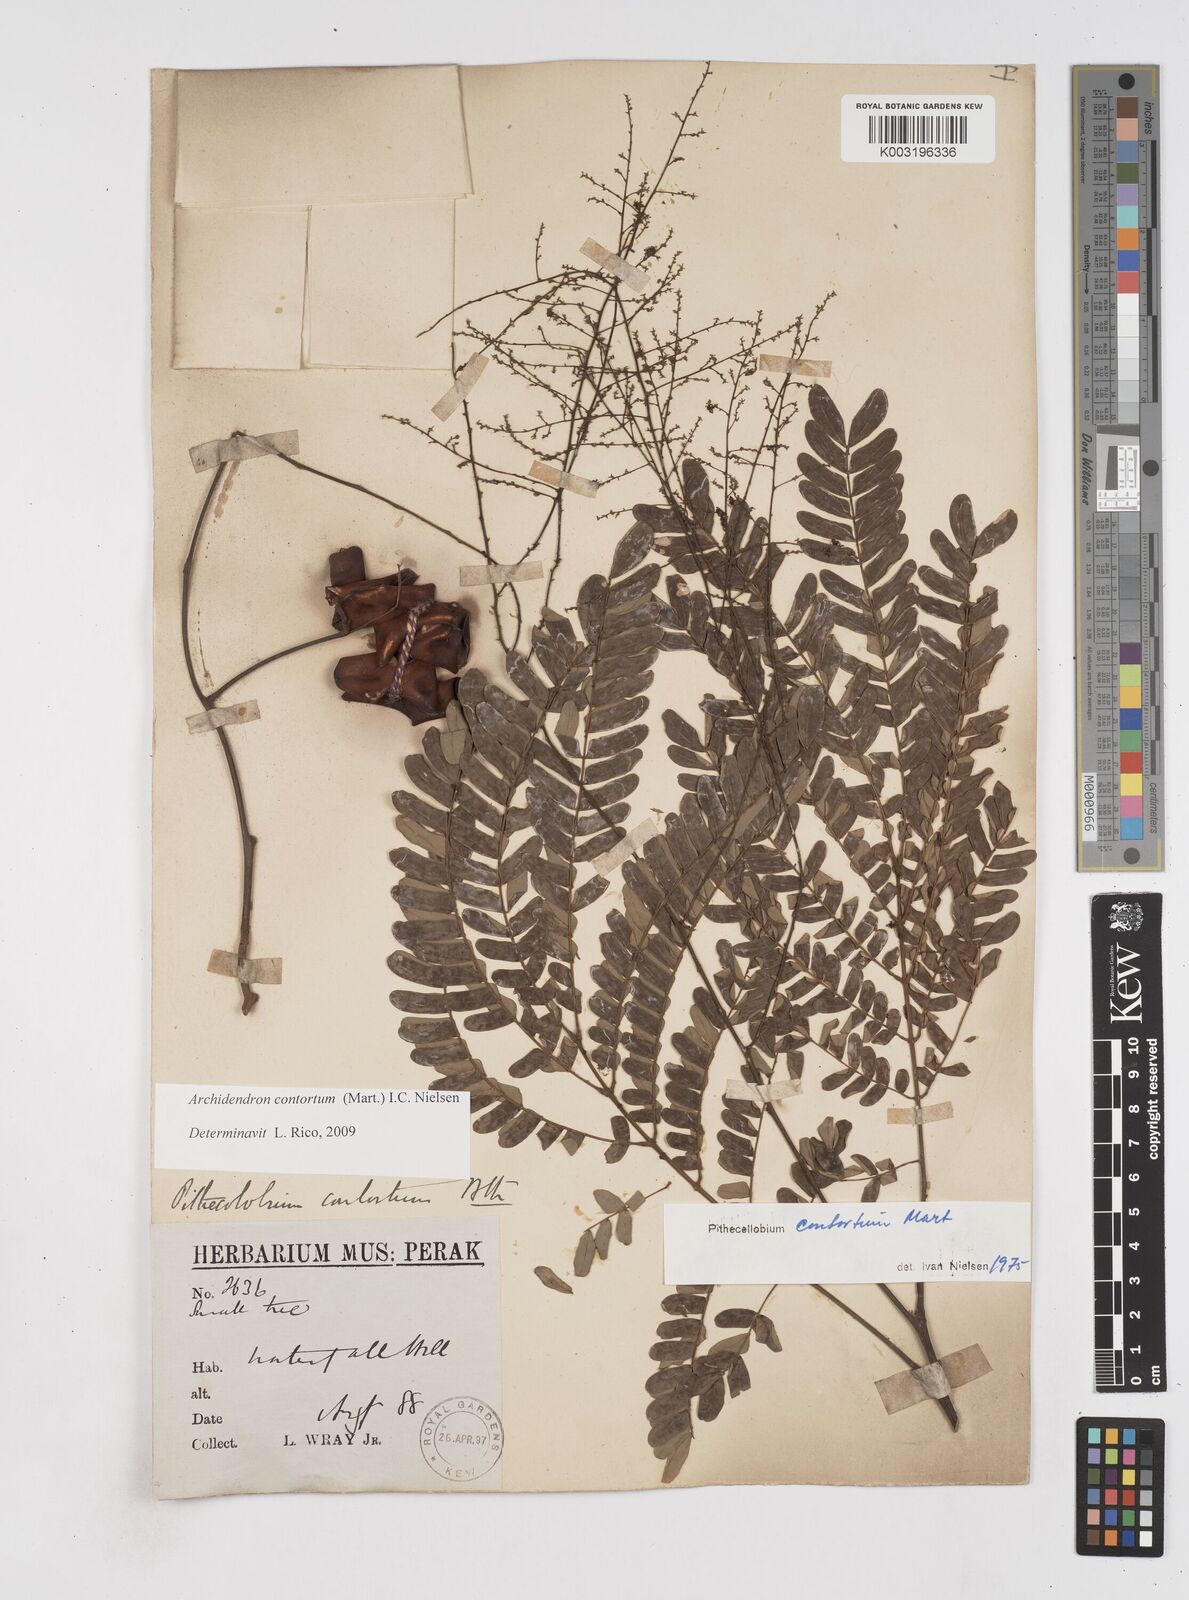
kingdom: Plantae
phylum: Tracheophyta
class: Magnoliopsida
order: Fabales
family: Fabaceae
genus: Archidendron
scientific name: Archidendron contortum
